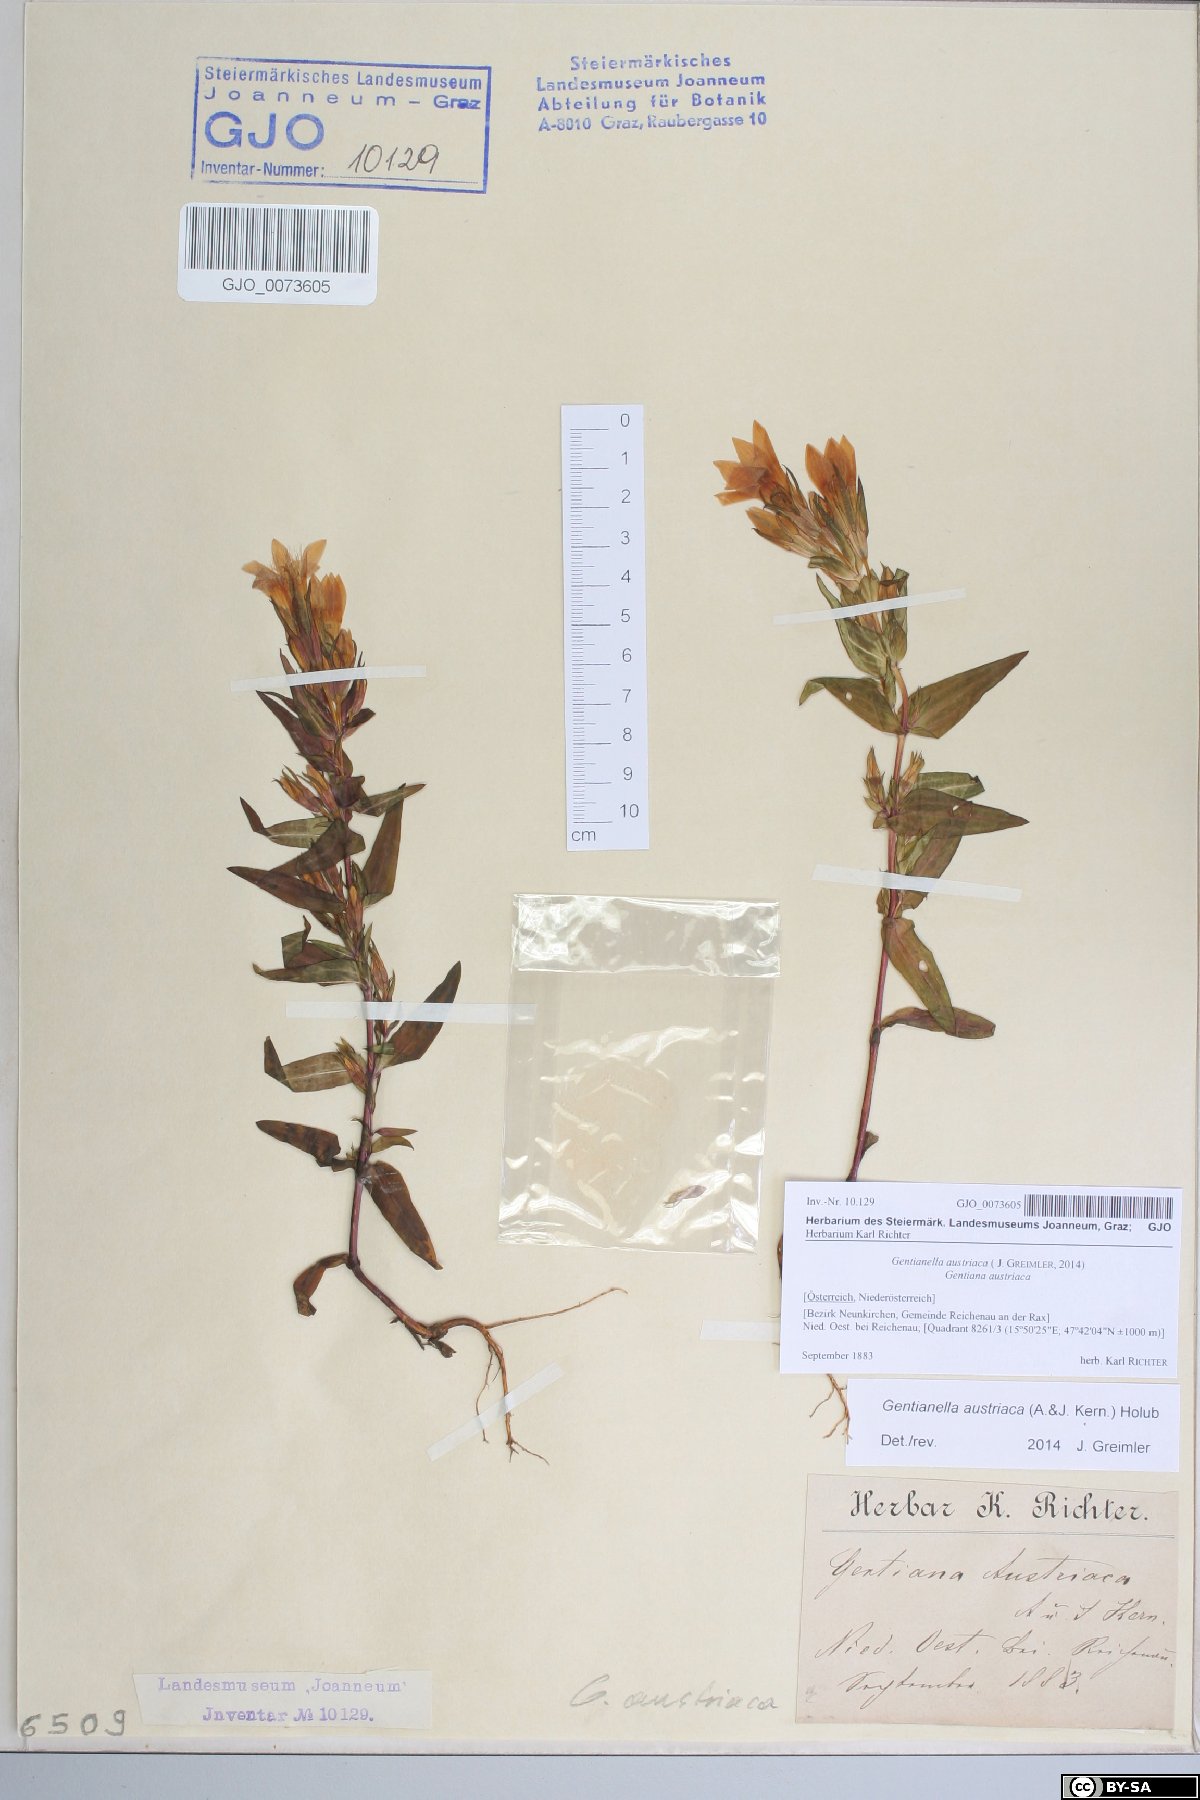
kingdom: Plantae
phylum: Tracheophyta
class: Magnoliopsida
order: Gentianales
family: Gentianaceae
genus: Gentianella
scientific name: Gentianella austriaca
